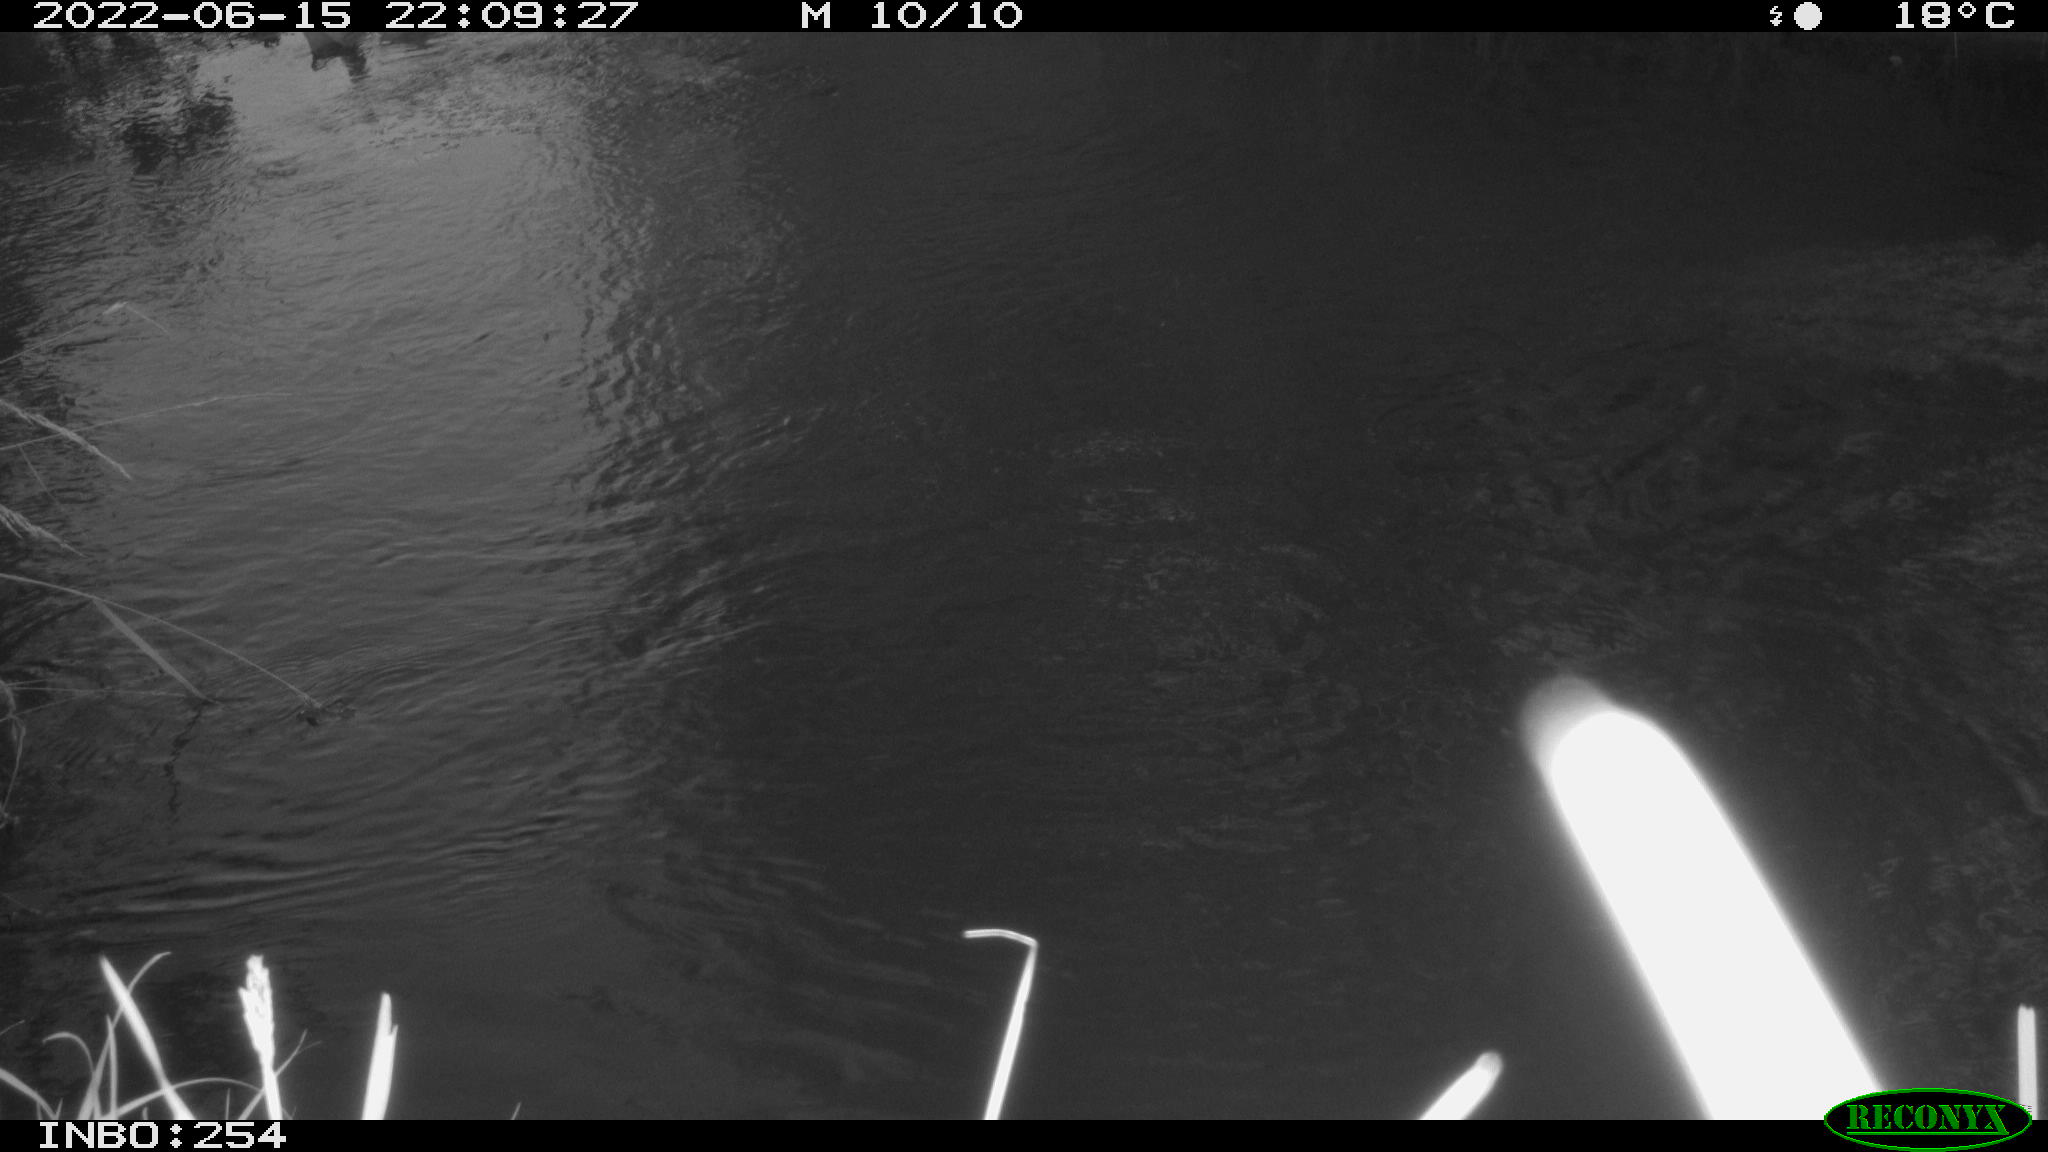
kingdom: Animalia
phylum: Chordata
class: Aves
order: Anseriformes
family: Anatidae
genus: Anas
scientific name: Anas platyrhynchos
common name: Mallard
